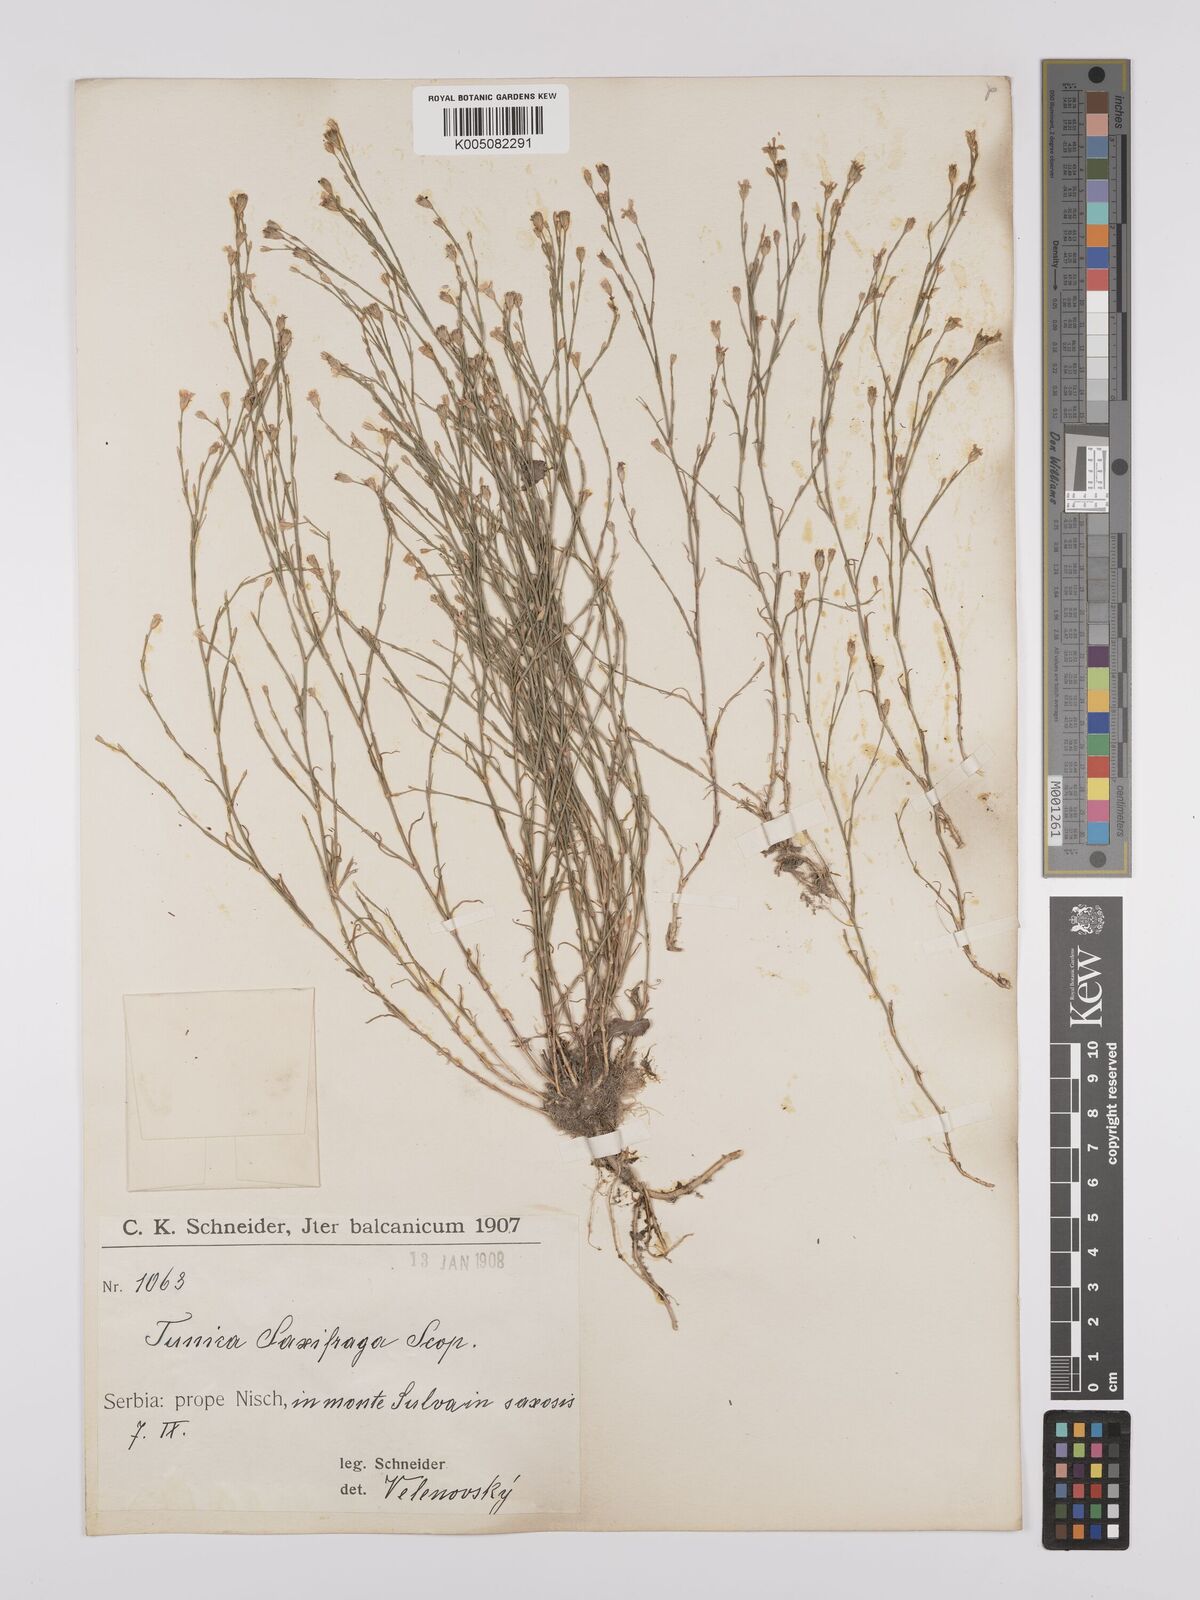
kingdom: Plantae
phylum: Tracheophyta
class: Magnoliopsida
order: Caryophyllales
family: Caryophyllaceae
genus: Petrorhagia
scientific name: Petrorhagia saxifraga
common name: Tunicflower
